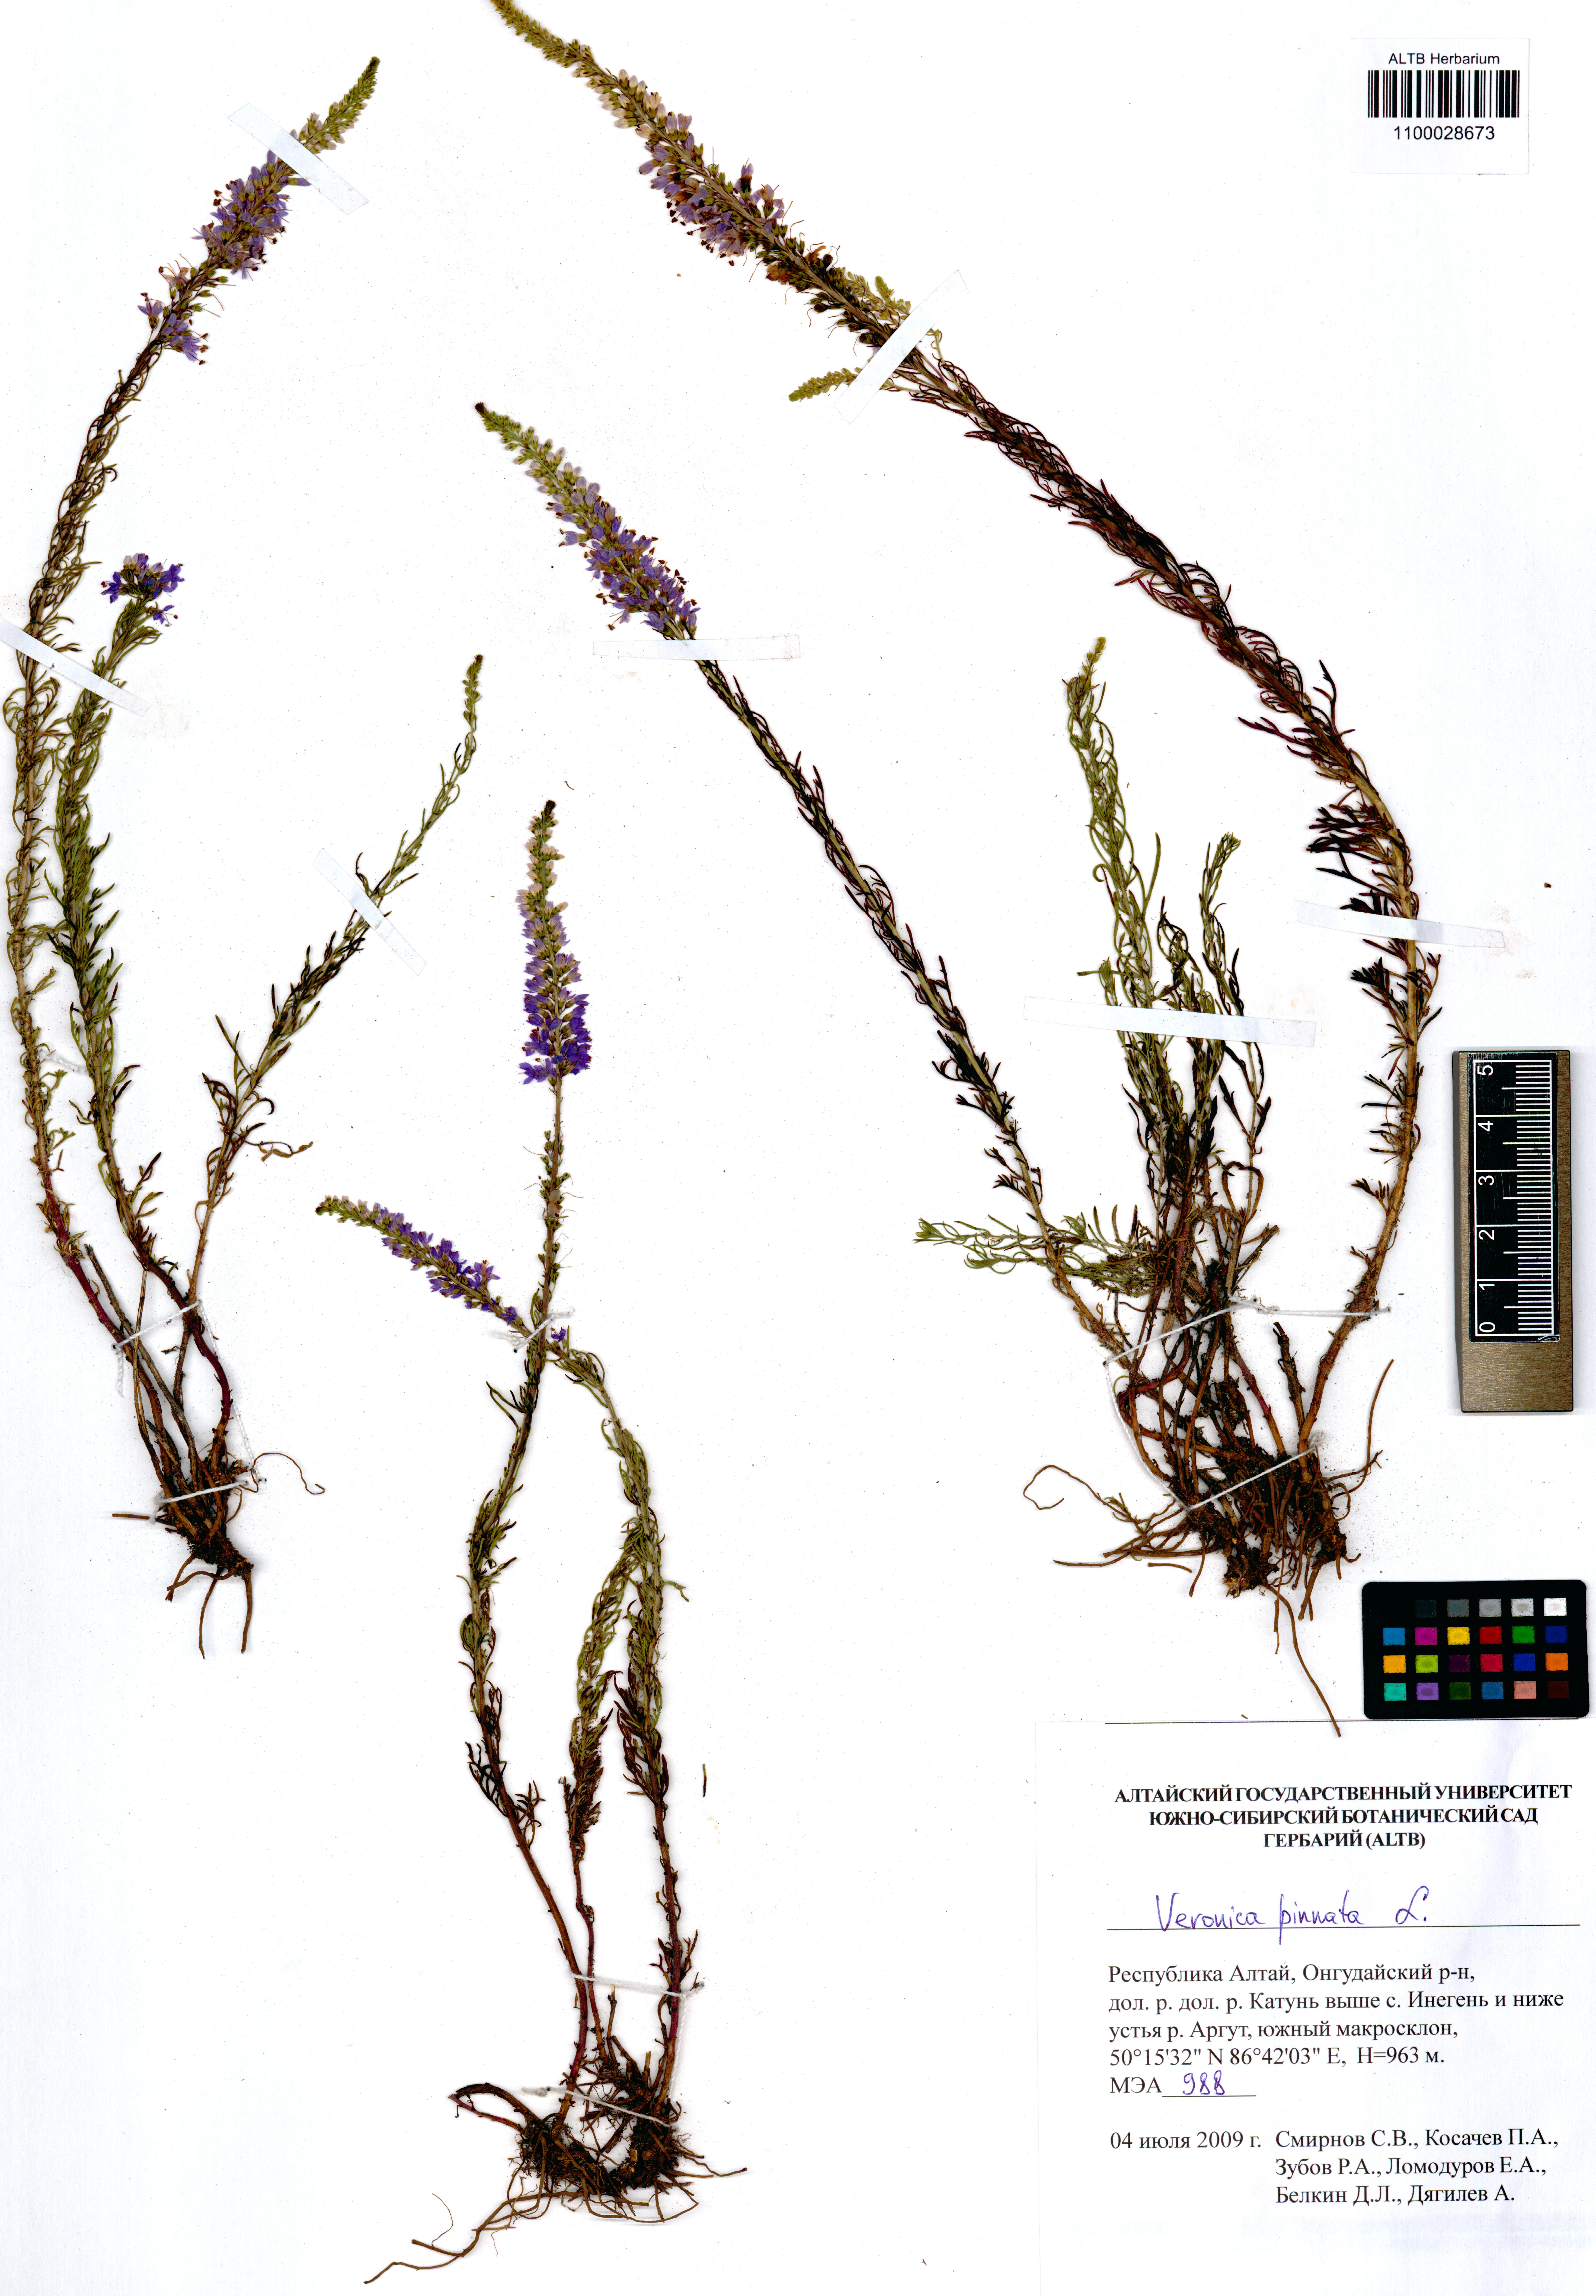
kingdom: Plantae
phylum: Tracheophyta
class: Magnoliopsida
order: Lamiales
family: Plantaginaceae
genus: Veronica
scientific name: Veronica pinnata
